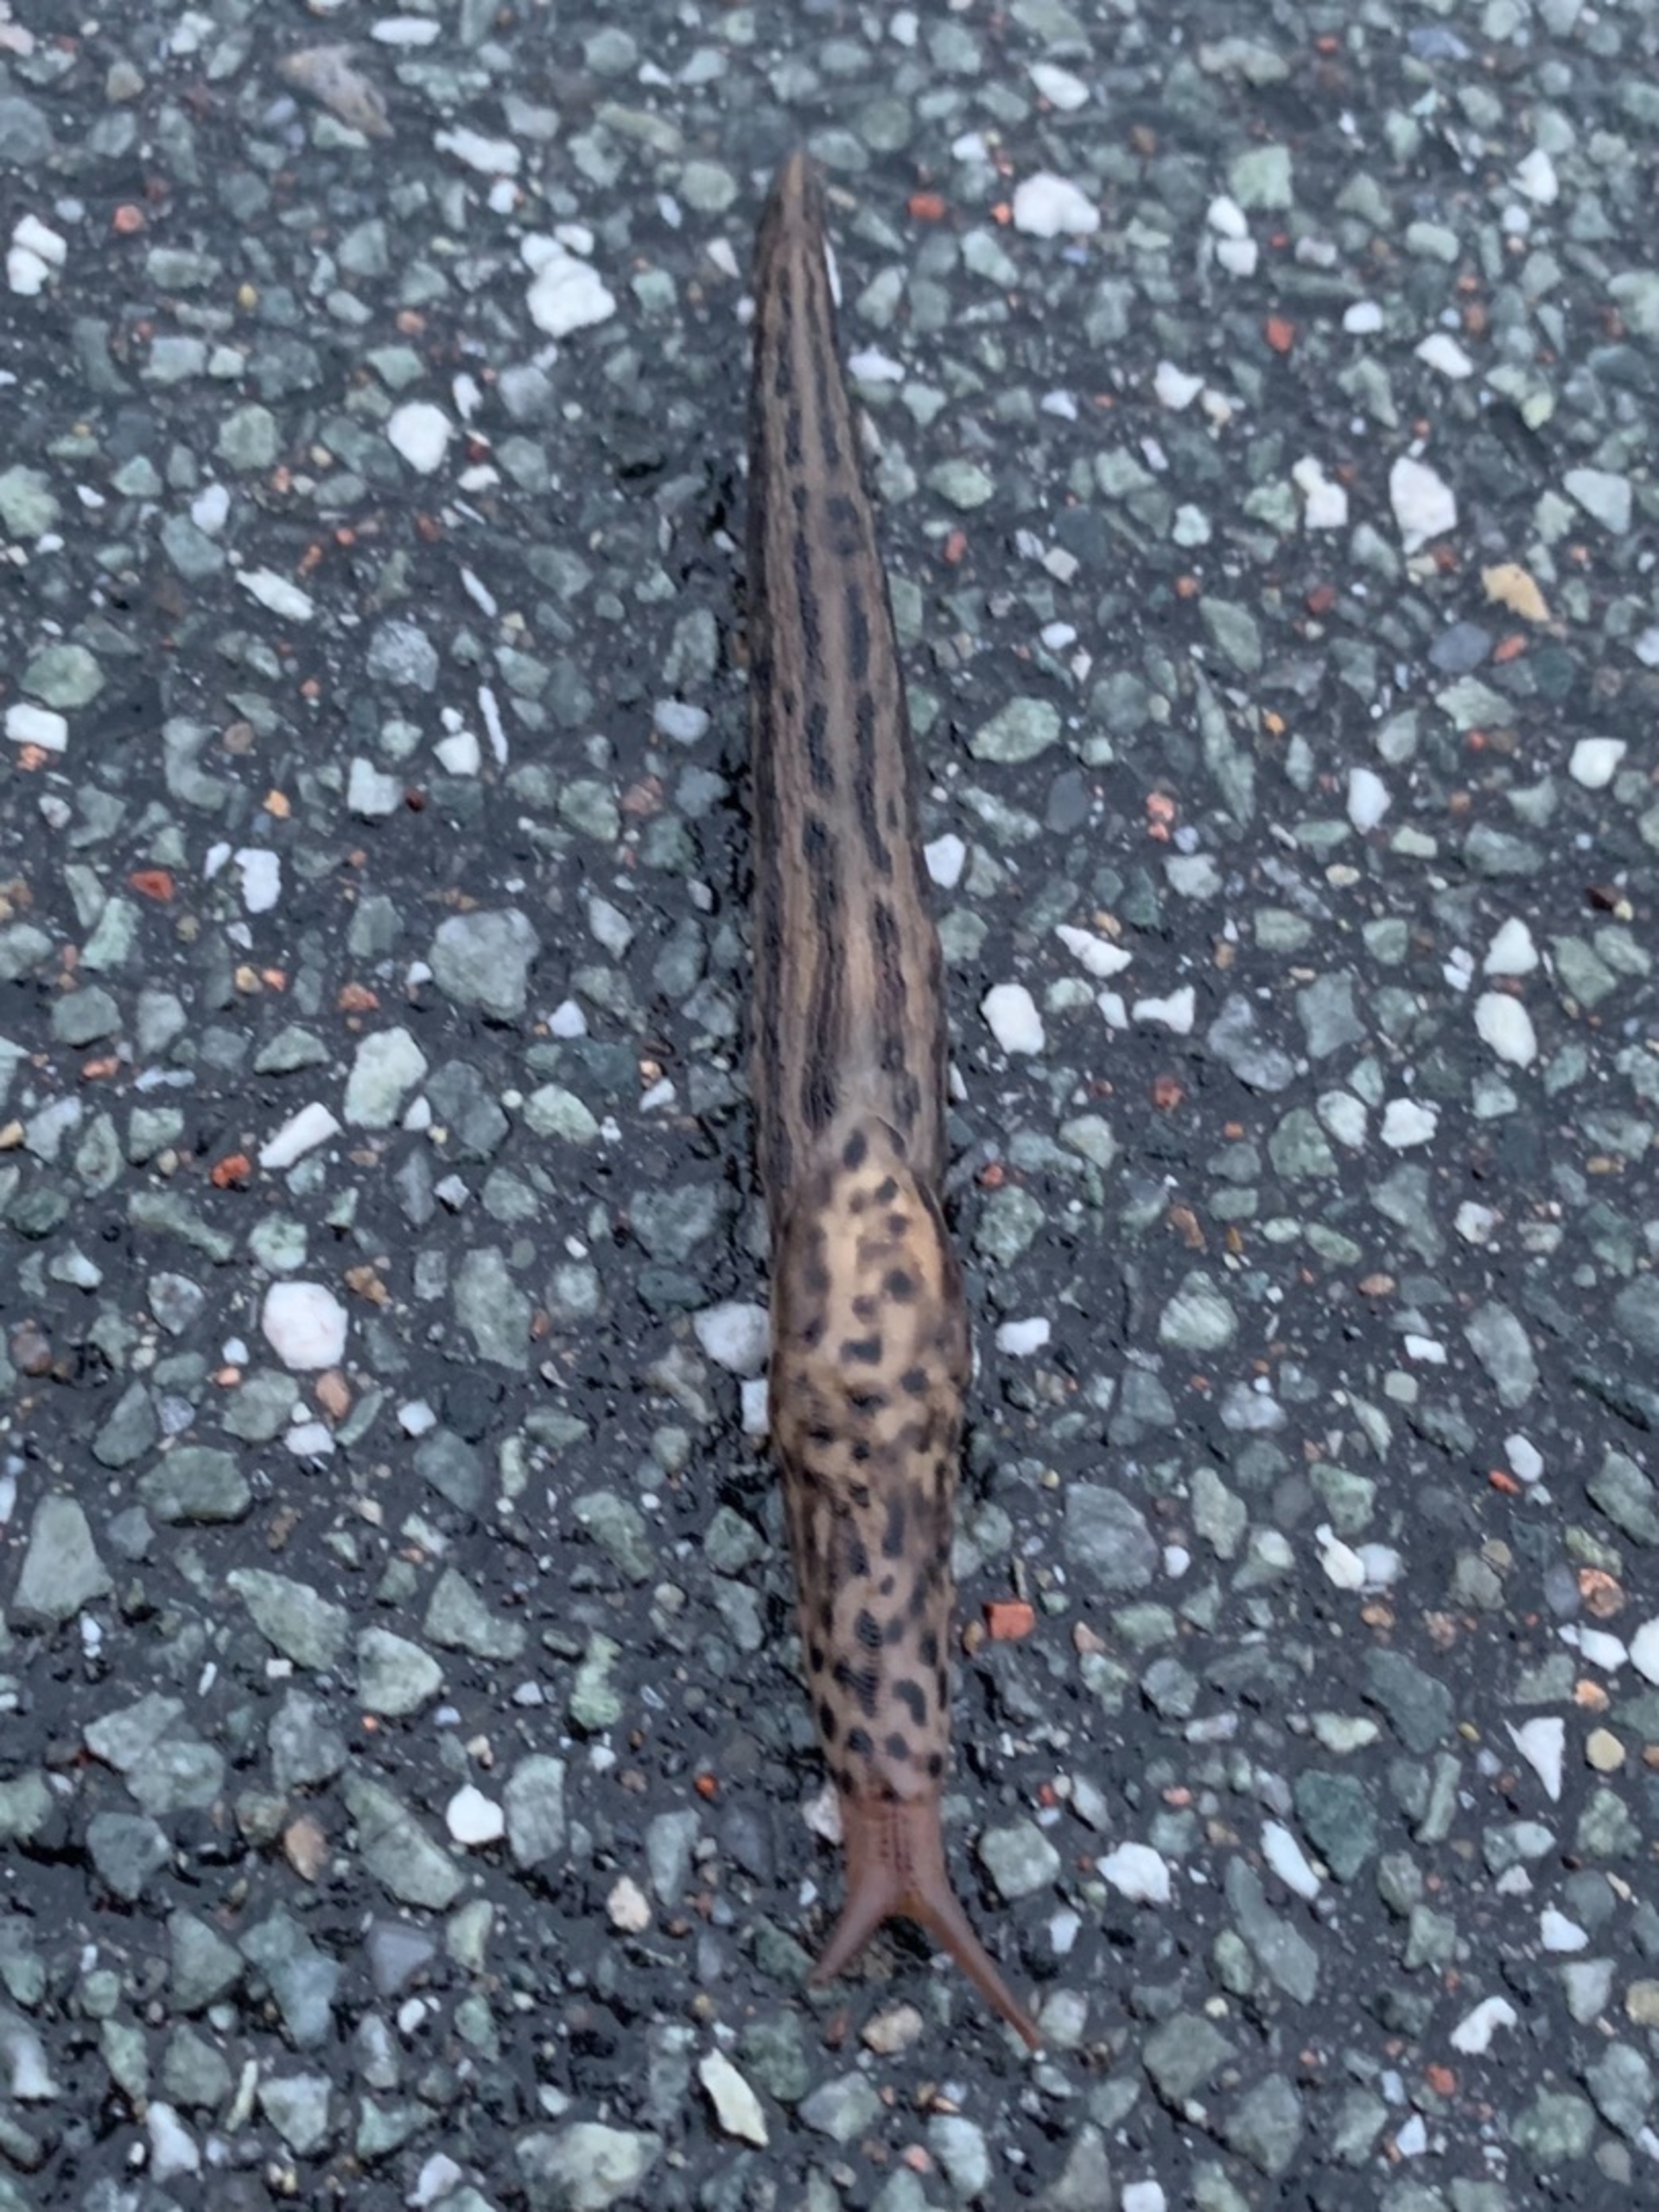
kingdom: Animalia
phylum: Mollusca
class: Gastropoda
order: Stylommatophora
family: Limacidae
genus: Limax
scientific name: Limax maximus
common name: Pantersnegl
